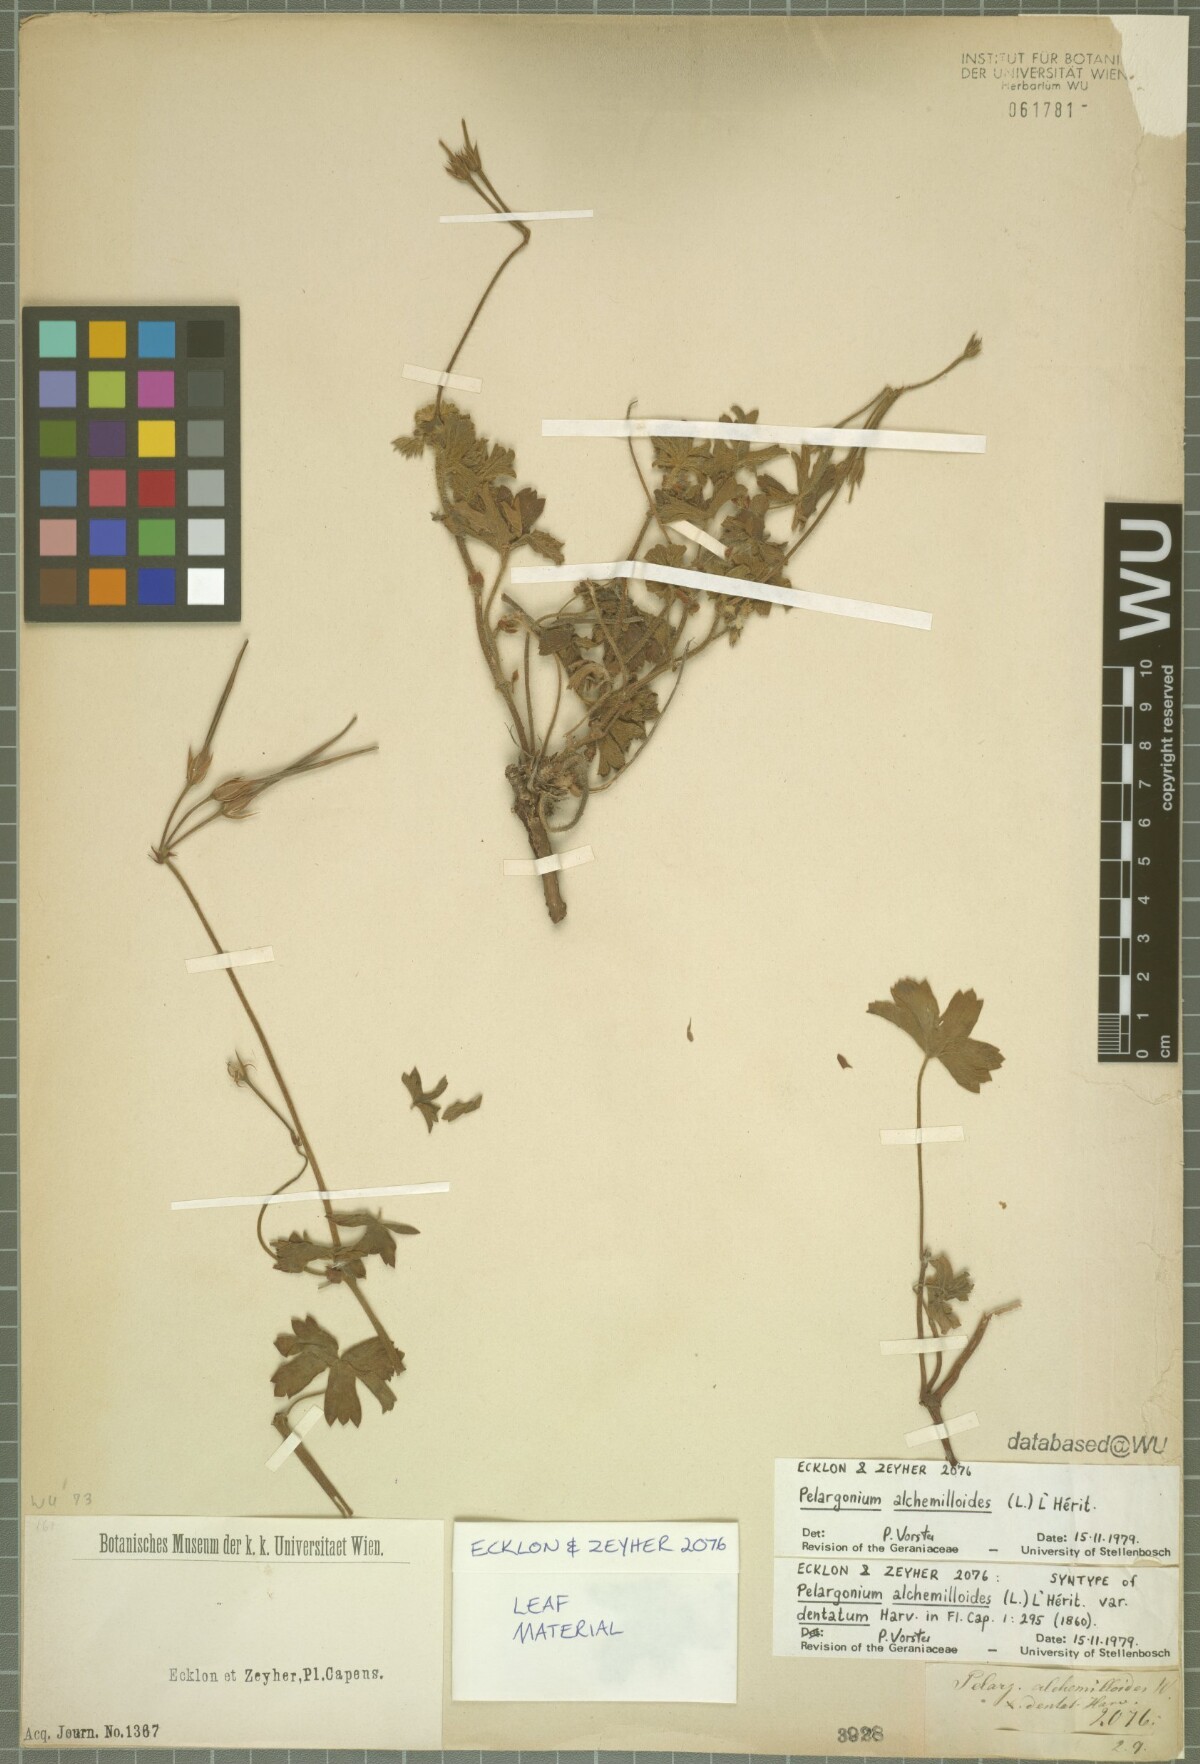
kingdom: Plantae
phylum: Tracheophyta
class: Magnoliopsida
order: Geraniales
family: Geraniaceae
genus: Pelargonium
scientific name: Pelargonium alchemilloides
